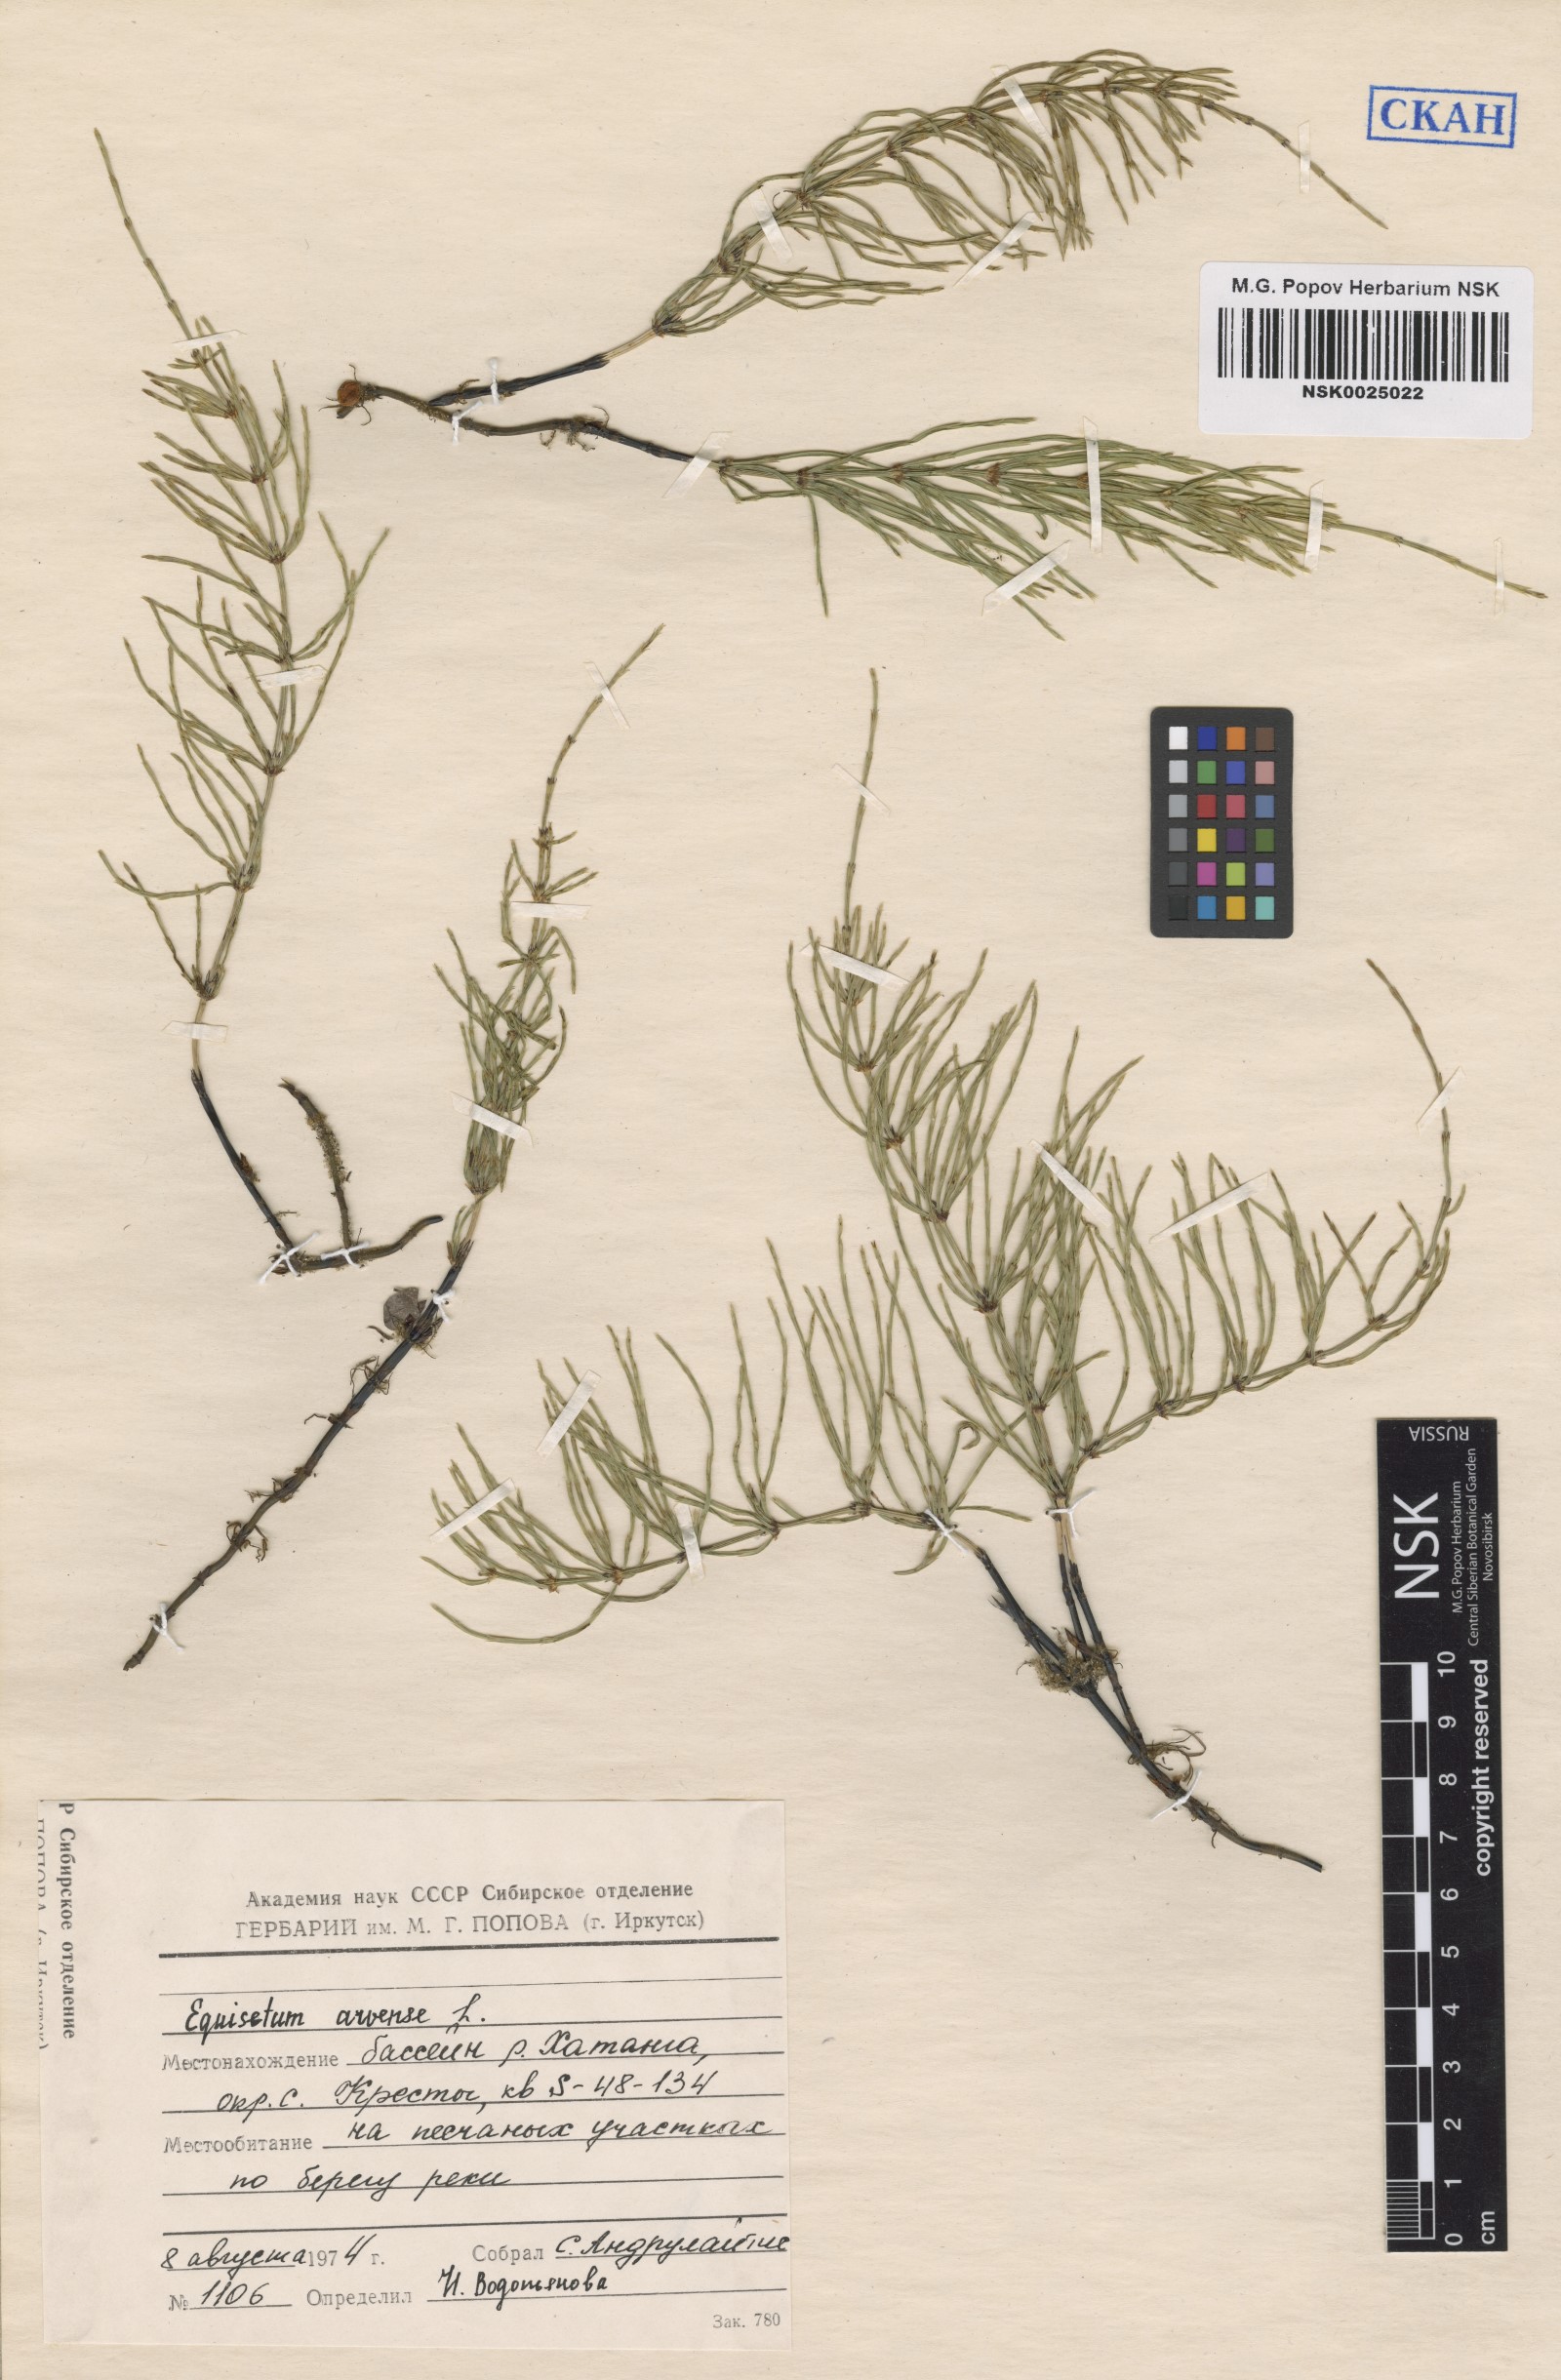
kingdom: Plantae
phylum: Tracheophyta
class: Polypodiopsida
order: Equisetales
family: Equisetaceae
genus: Equisetum
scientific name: Equisetum arvense
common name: Field horsetail
